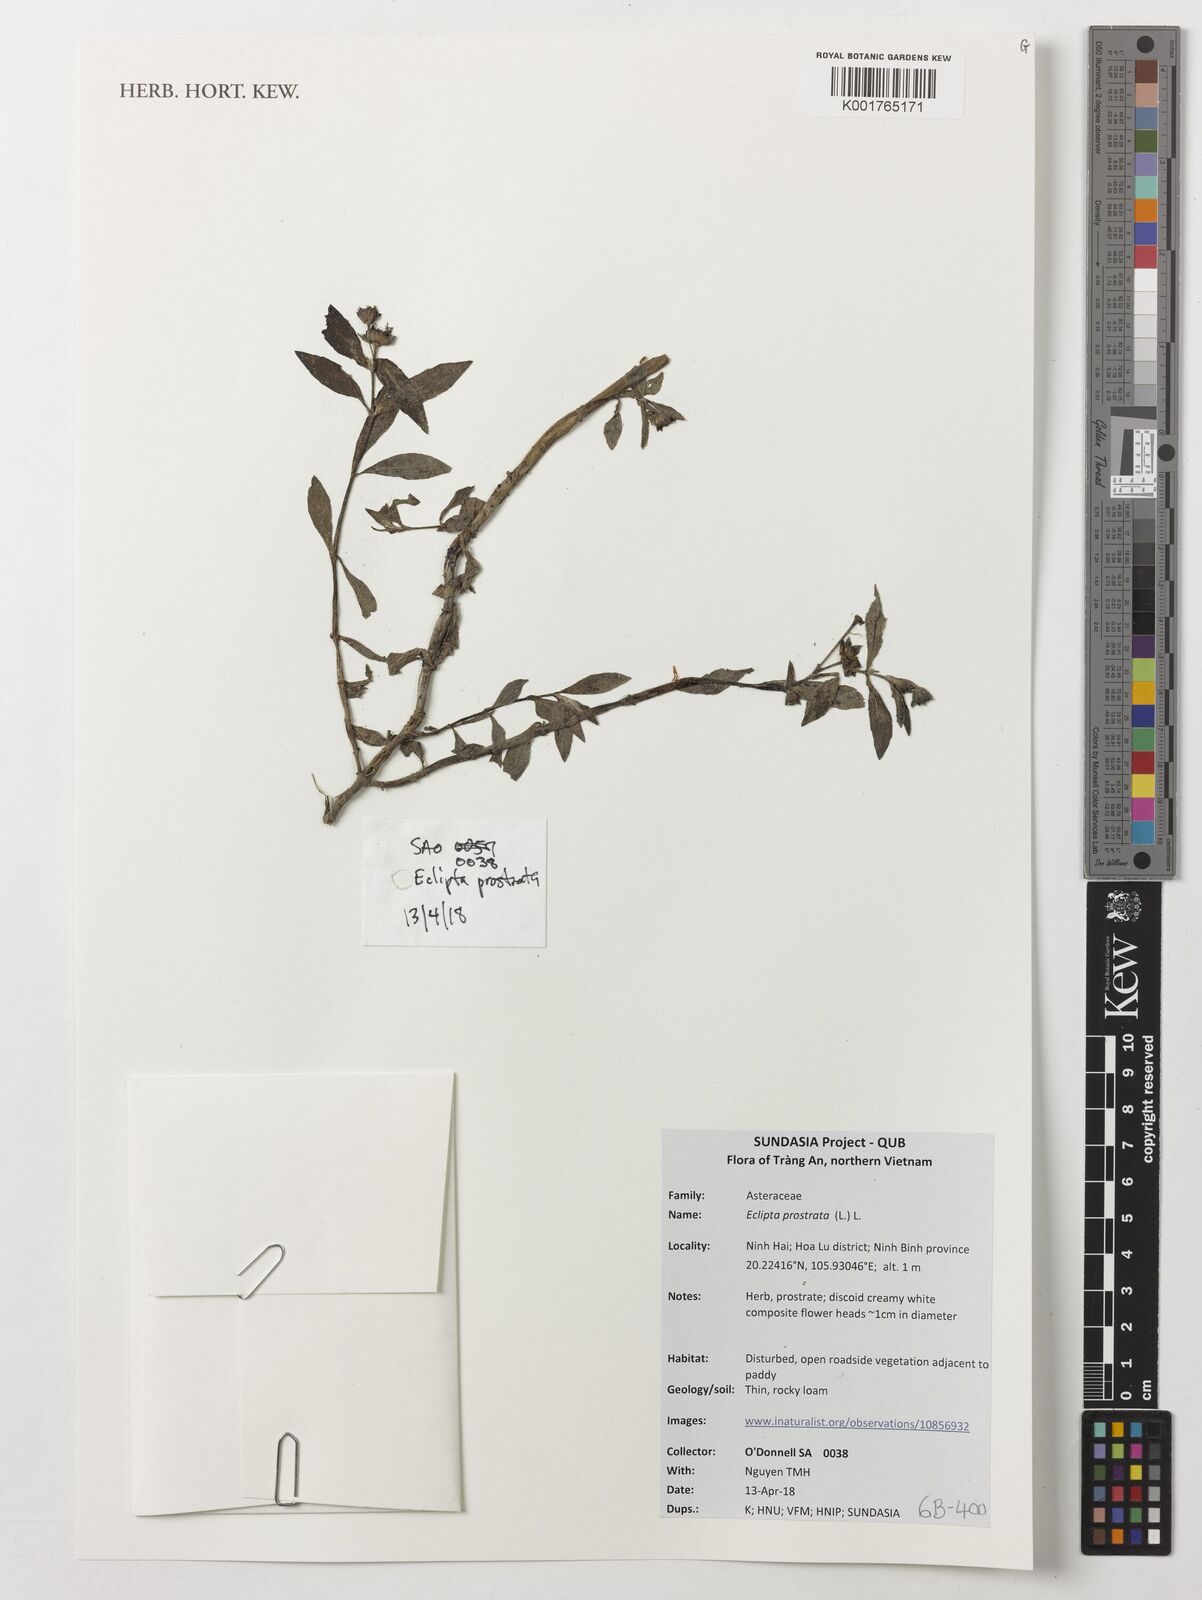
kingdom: Plantae
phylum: Tracheophyta
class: Magnoliopsida
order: Asterales
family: Asteraceae
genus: Eclipta
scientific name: Eclipta prostrata
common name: False daisy
